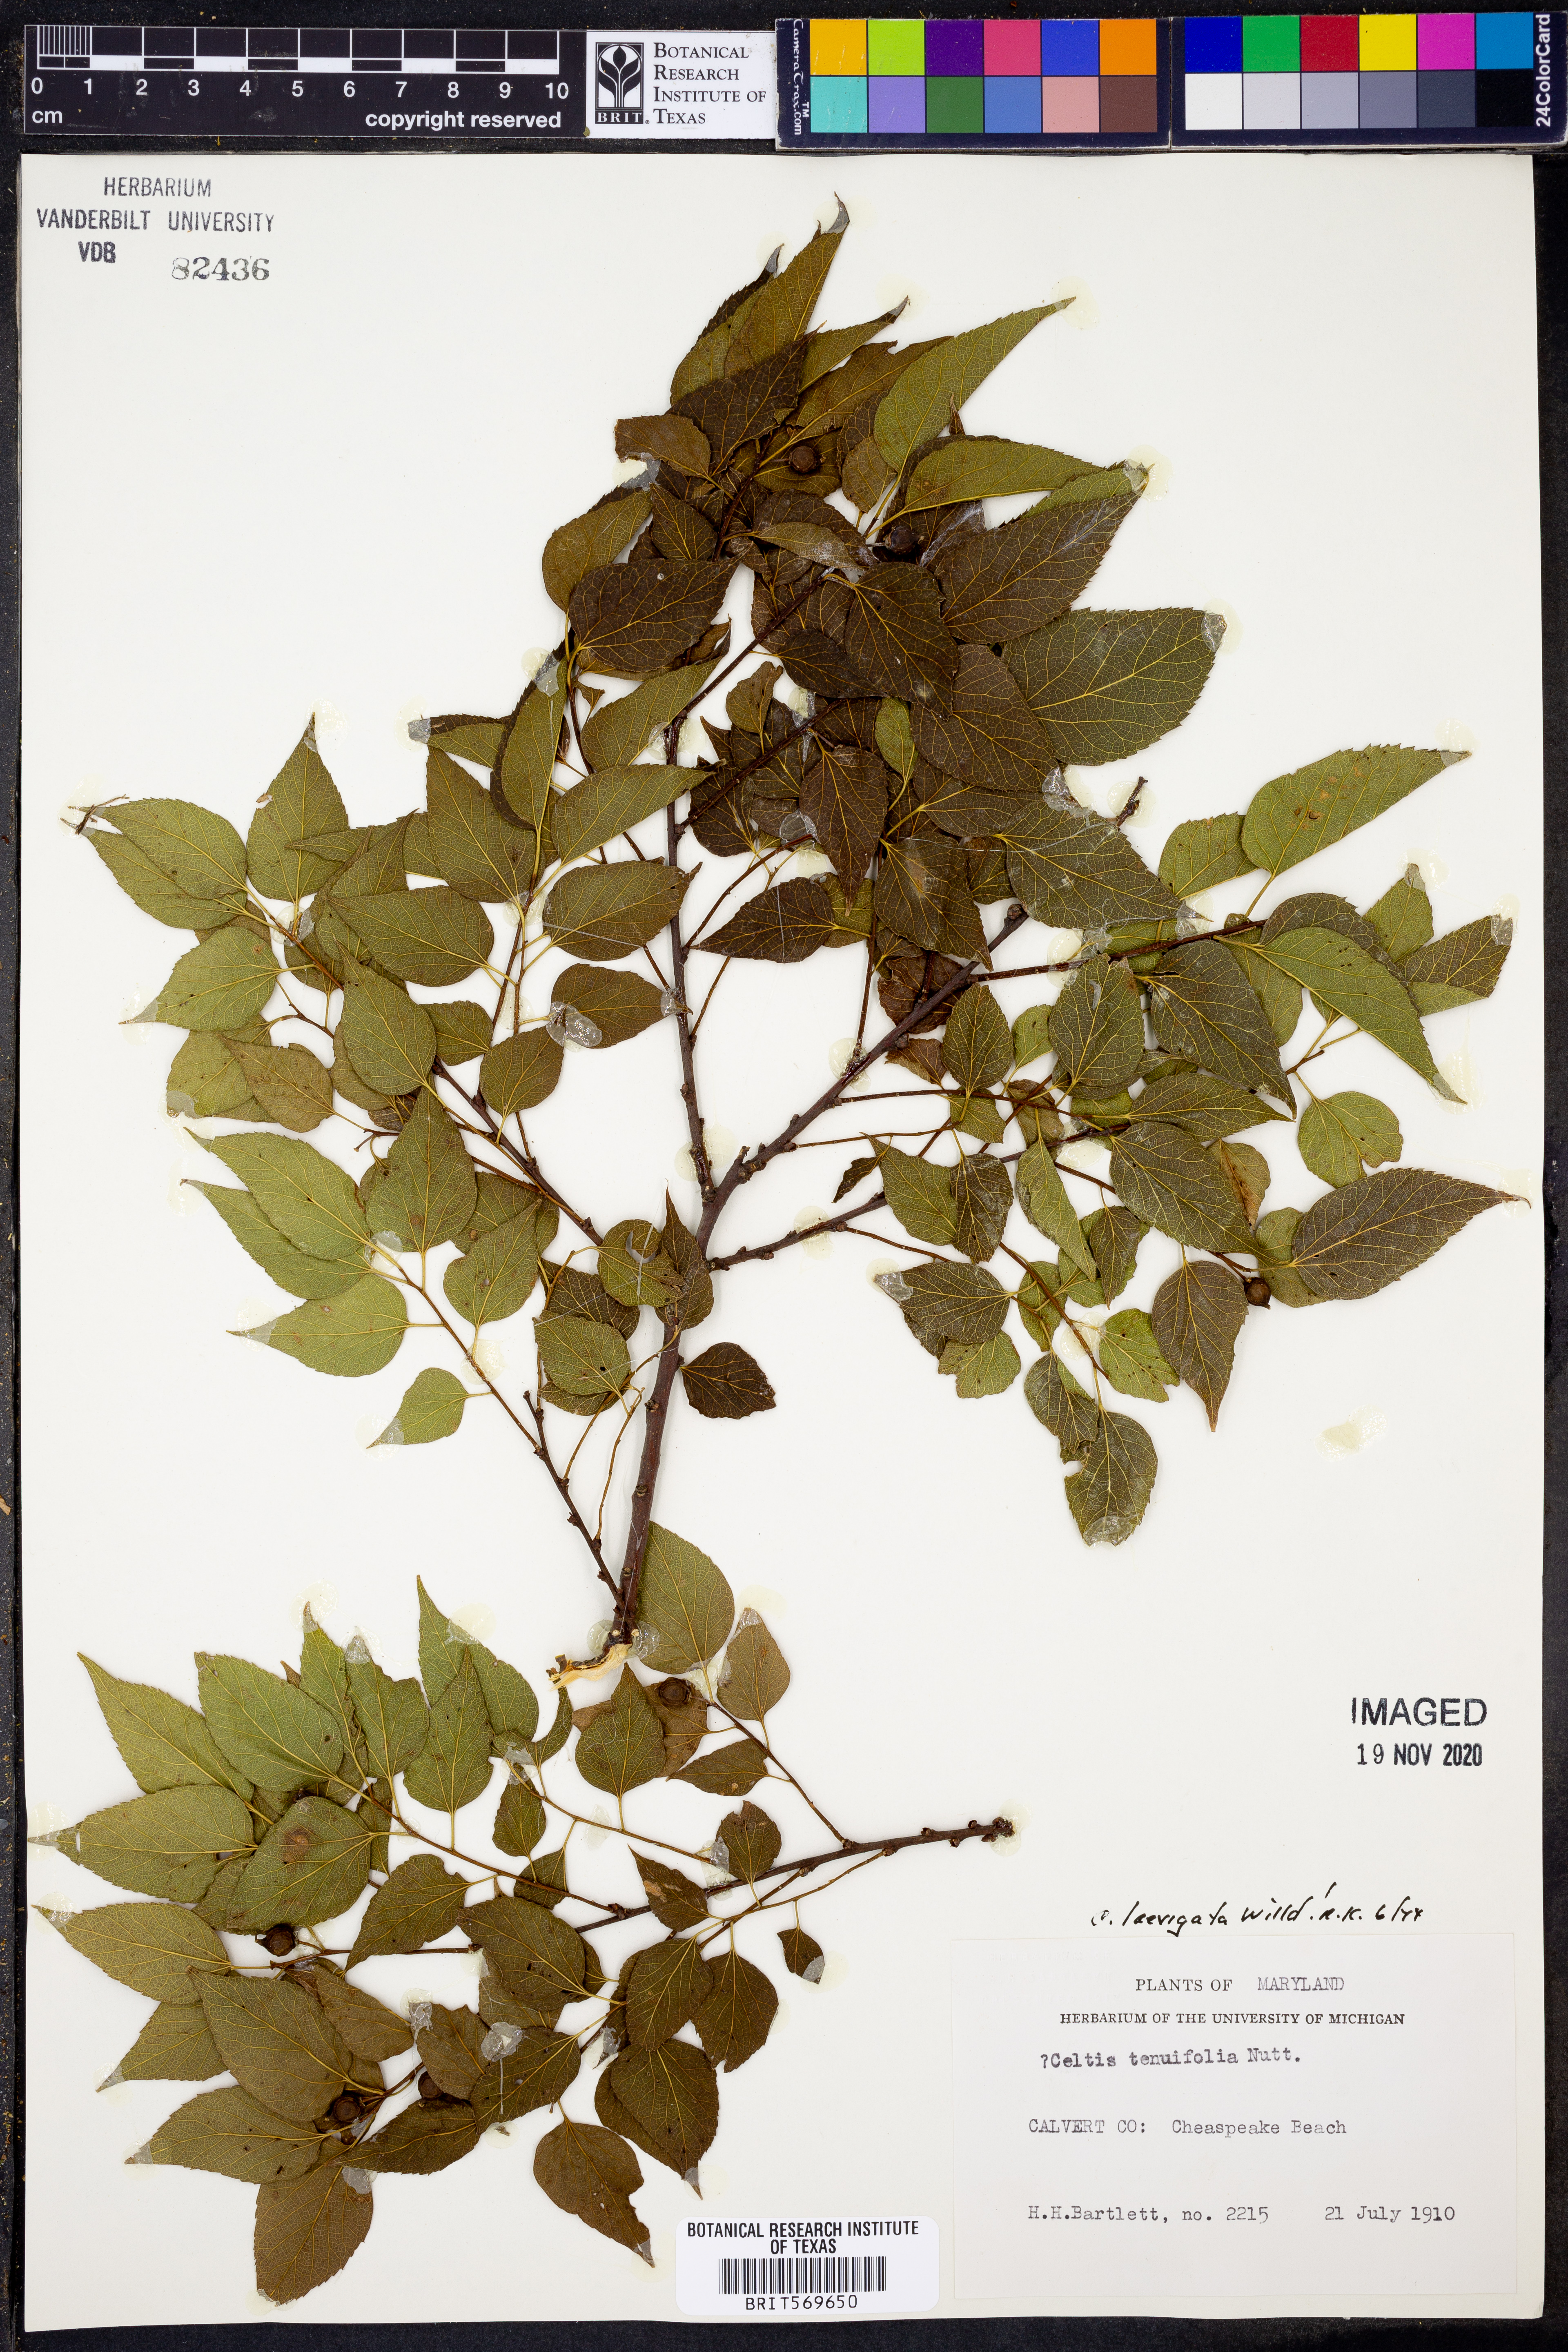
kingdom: Plantae
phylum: Tracheophyta
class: Magnoliopsida
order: Rosales
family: Cannabaceae
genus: Celtis
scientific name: Celtis laevigata
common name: Sugarberry
